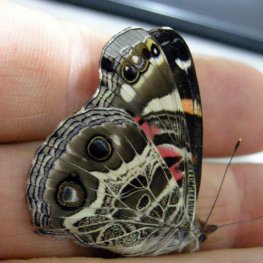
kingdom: Animalia
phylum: Arthropoda
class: Insecta
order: Lepidoptera
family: Nymphalidae
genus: Vanessa
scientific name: Vanessa virginiensis
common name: American Lady
